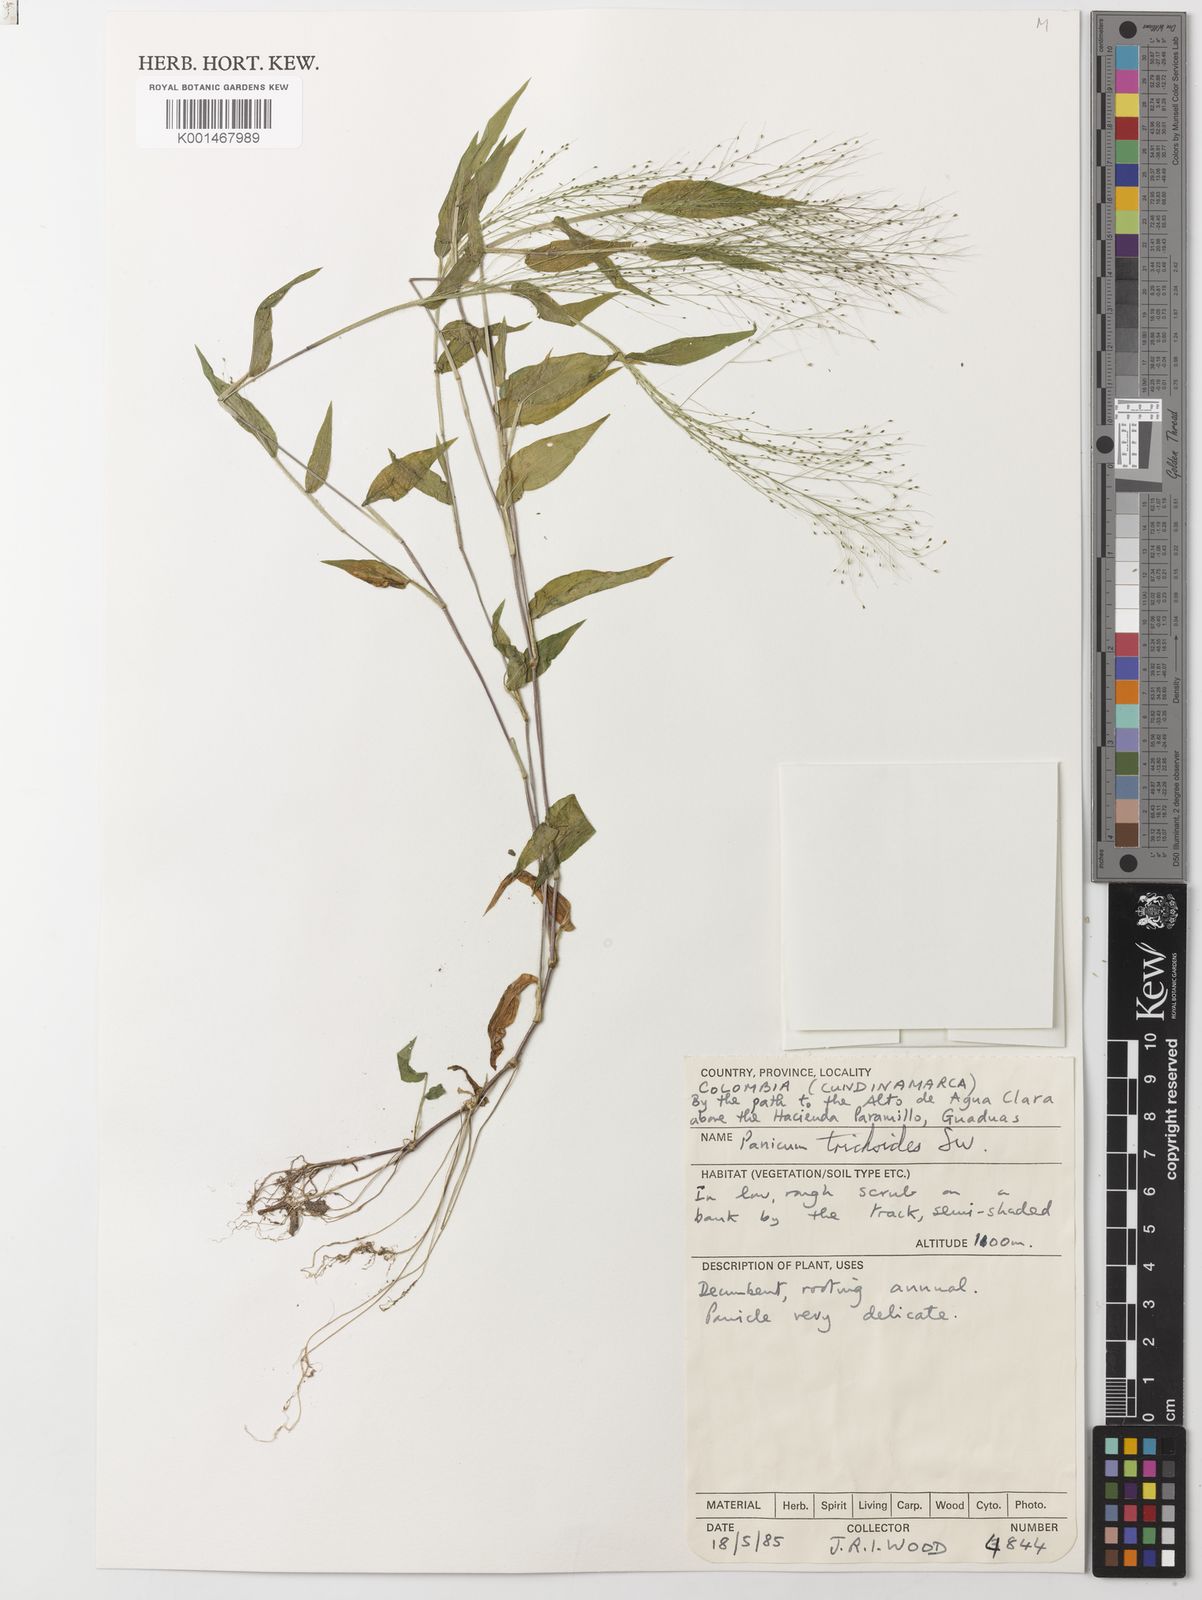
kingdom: Plantae
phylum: Tracheophyta
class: Liliopsida
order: Poales
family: Poaceae
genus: Panicum
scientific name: Panicum trichoides
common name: Tickle grass
